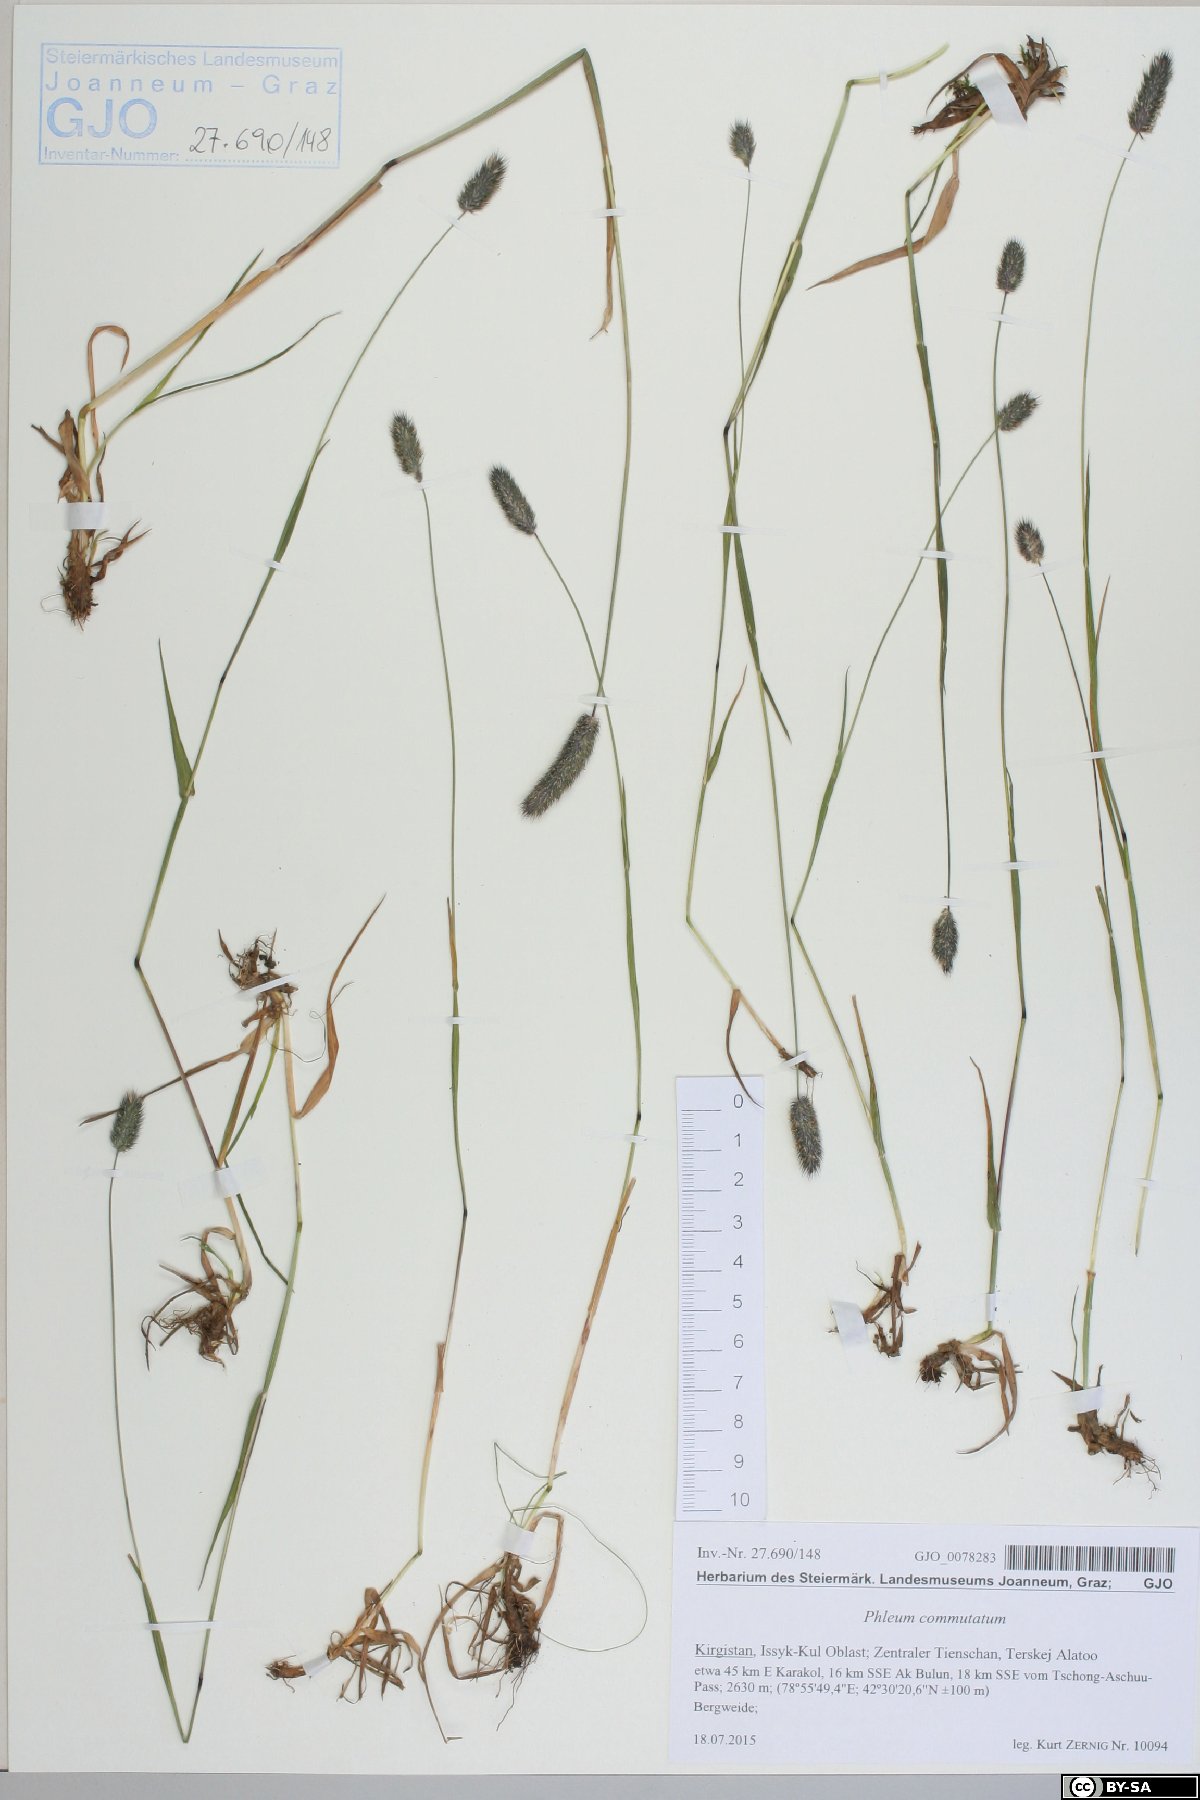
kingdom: Plantae
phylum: Tracheophyta
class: Liliopsida
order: Poales
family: Poaceae
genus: Phleum
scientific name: Phleum alpinum
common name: Alpine cat's-tail
